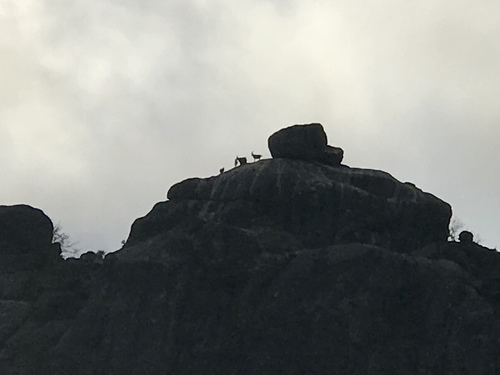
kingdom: Animalia
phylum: Chordata
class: Mammalia
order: Artiodactyla
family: Bovidae
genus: Capra
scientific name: Capra pyrenaica
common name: Spanish ibex
